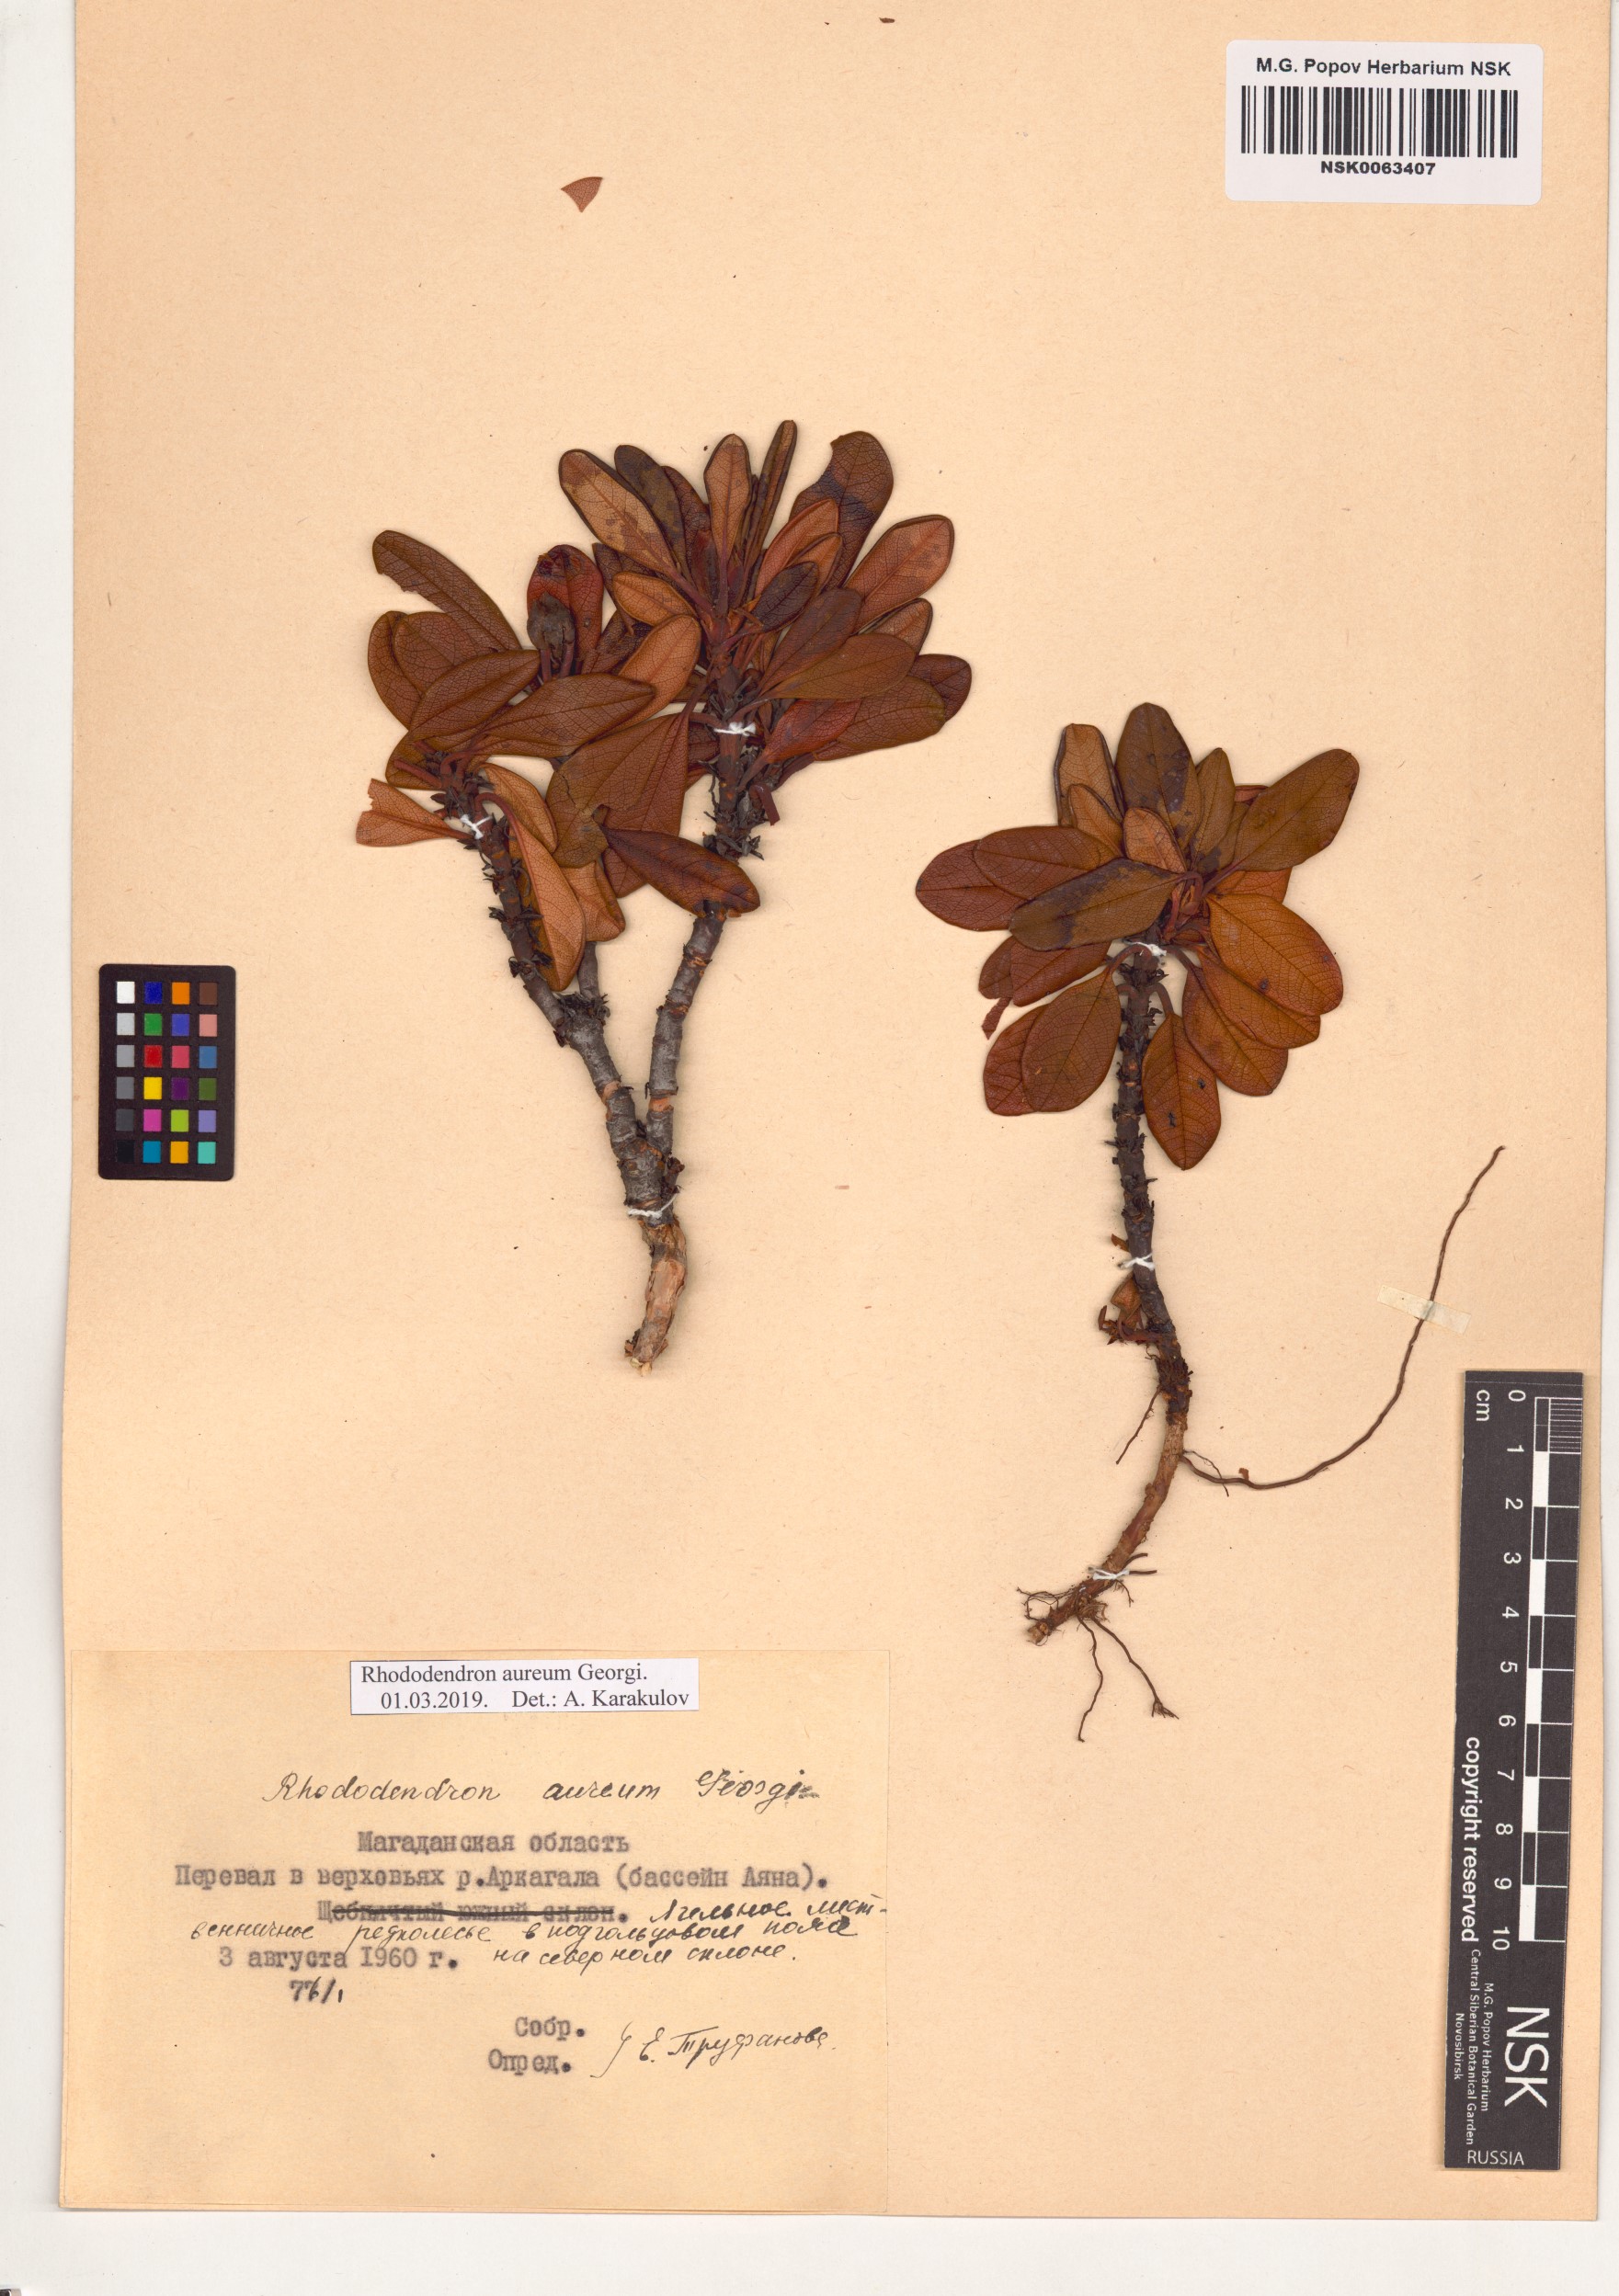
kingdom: Plantae
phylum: Tracheophyta
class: Magnoliopsida
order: Ericales
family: Ericaceae
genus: Rhododendron
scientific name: Rhododendron aureum
